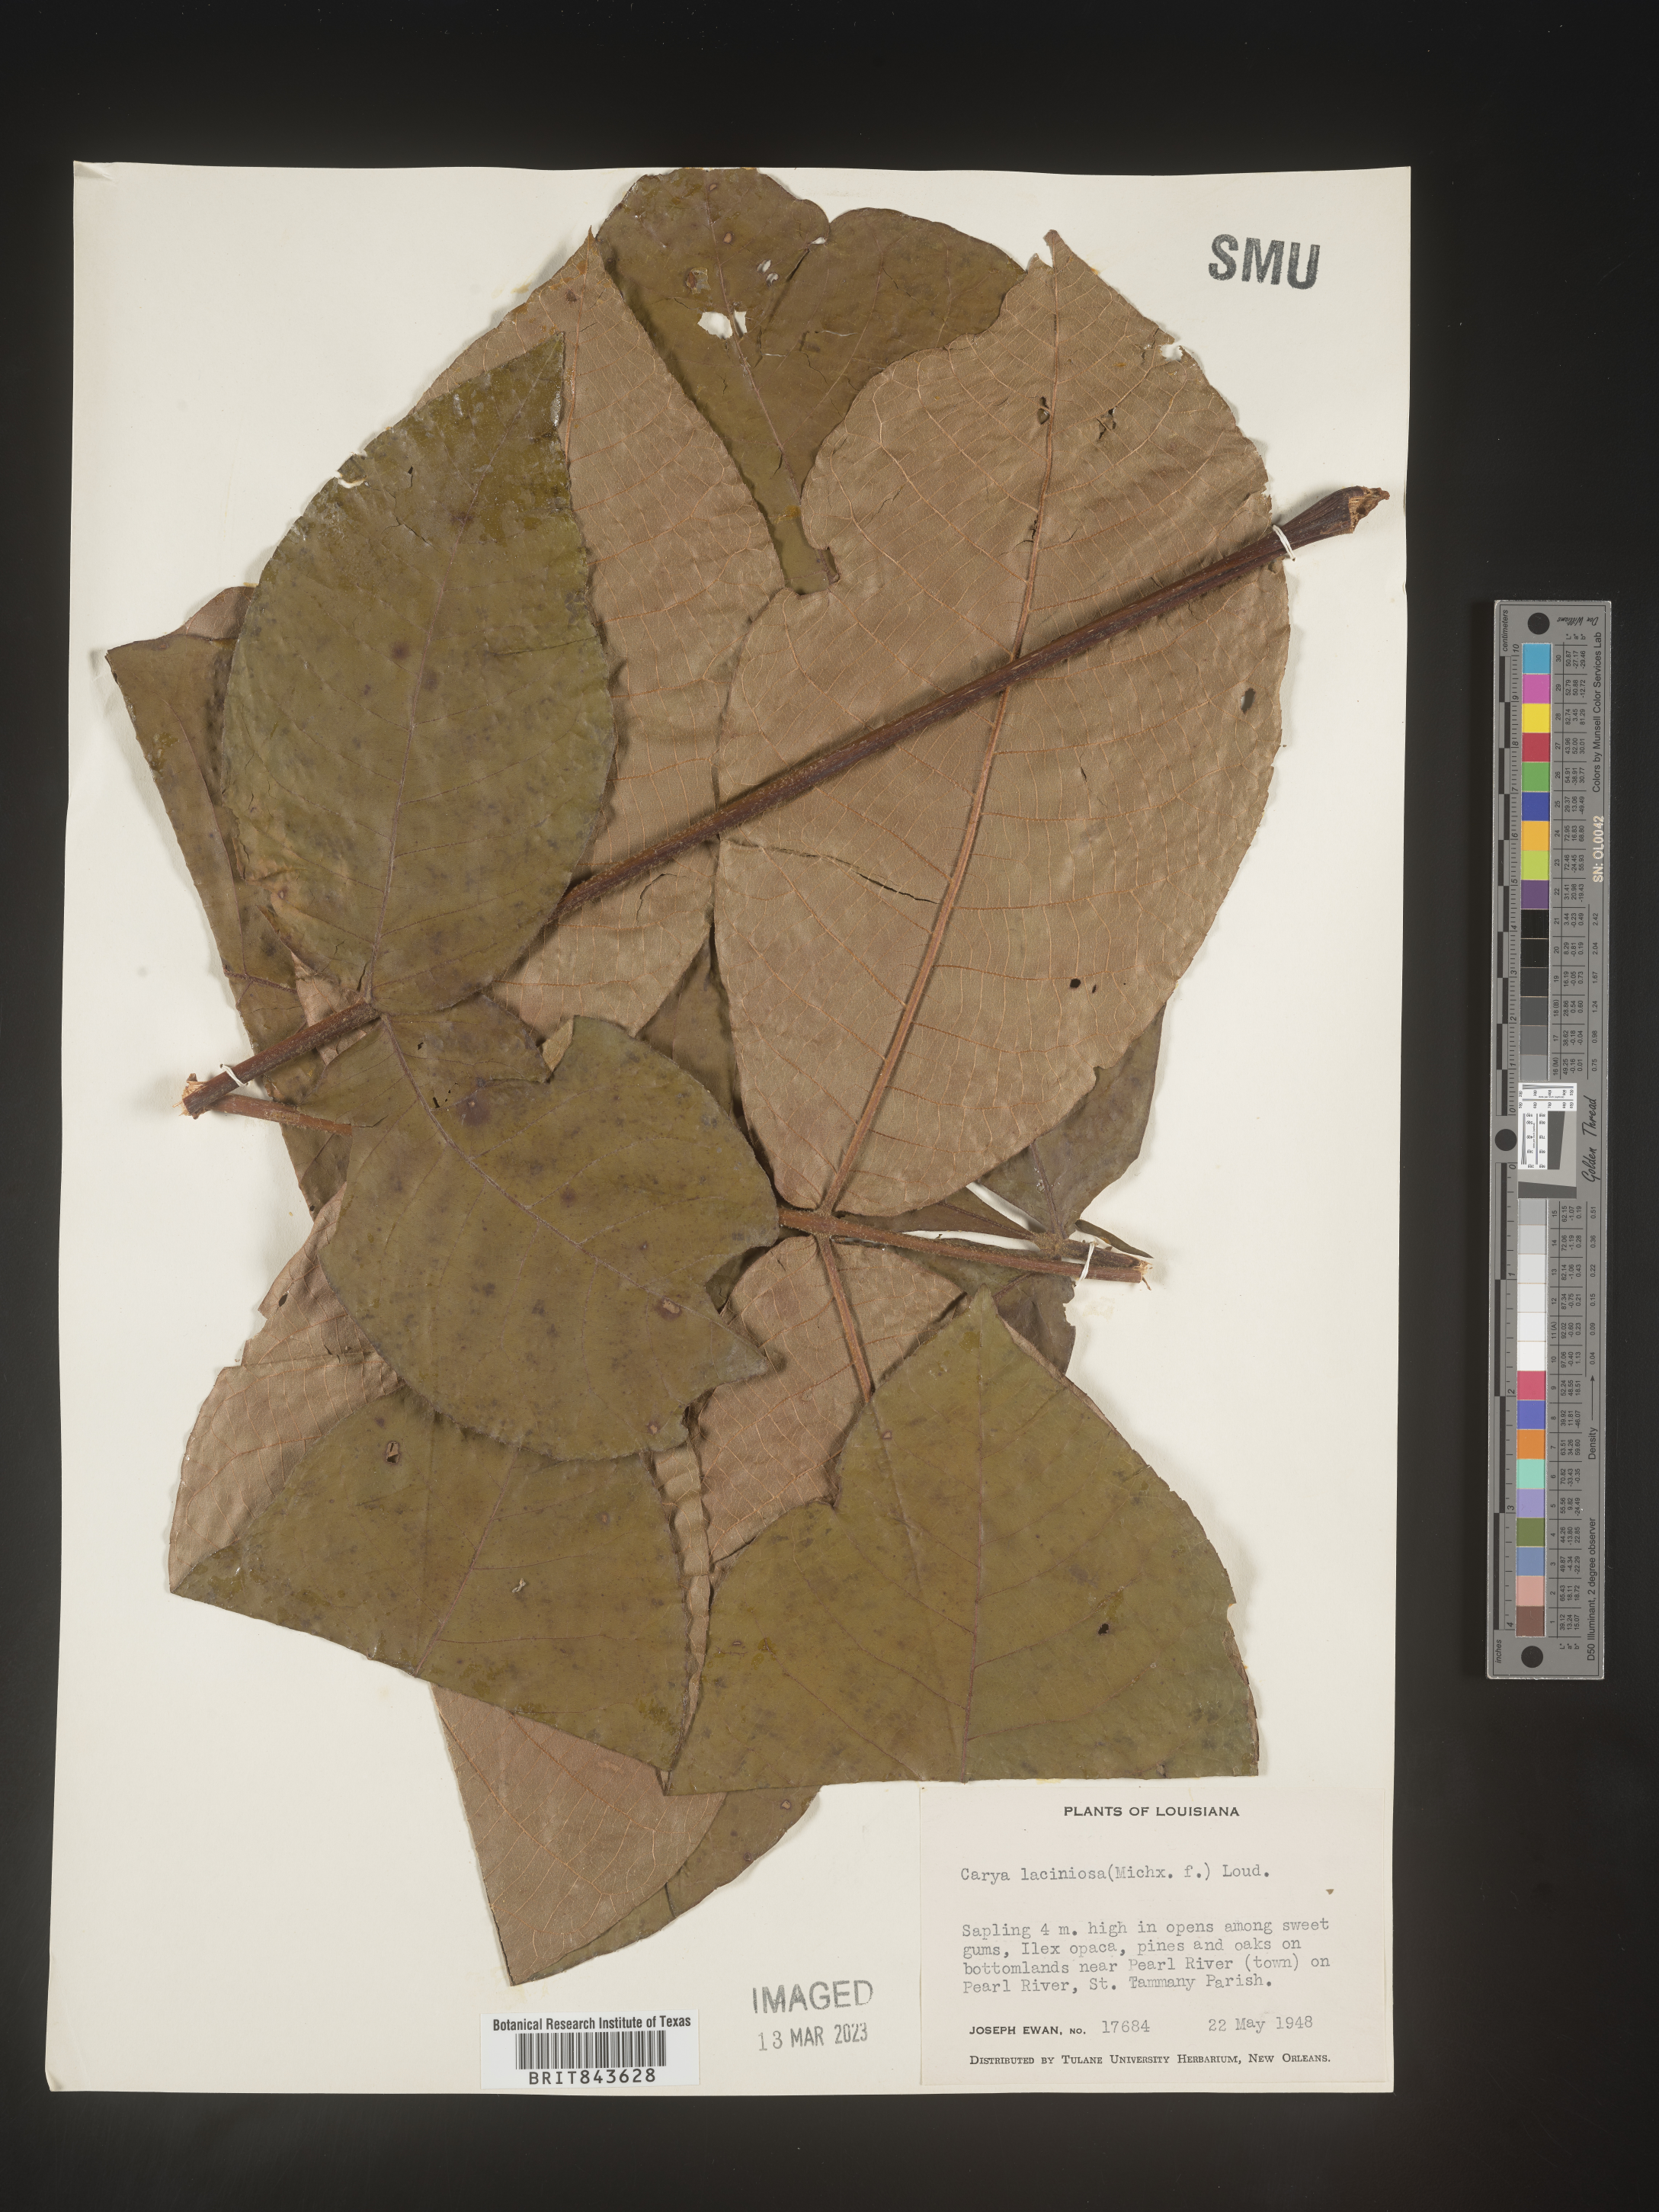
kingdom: Plantae
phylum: Tracheophyta
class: Magnoliopsida
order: Fagales
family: Juglandaceae
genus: Carya
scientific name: Carya laciniosa
